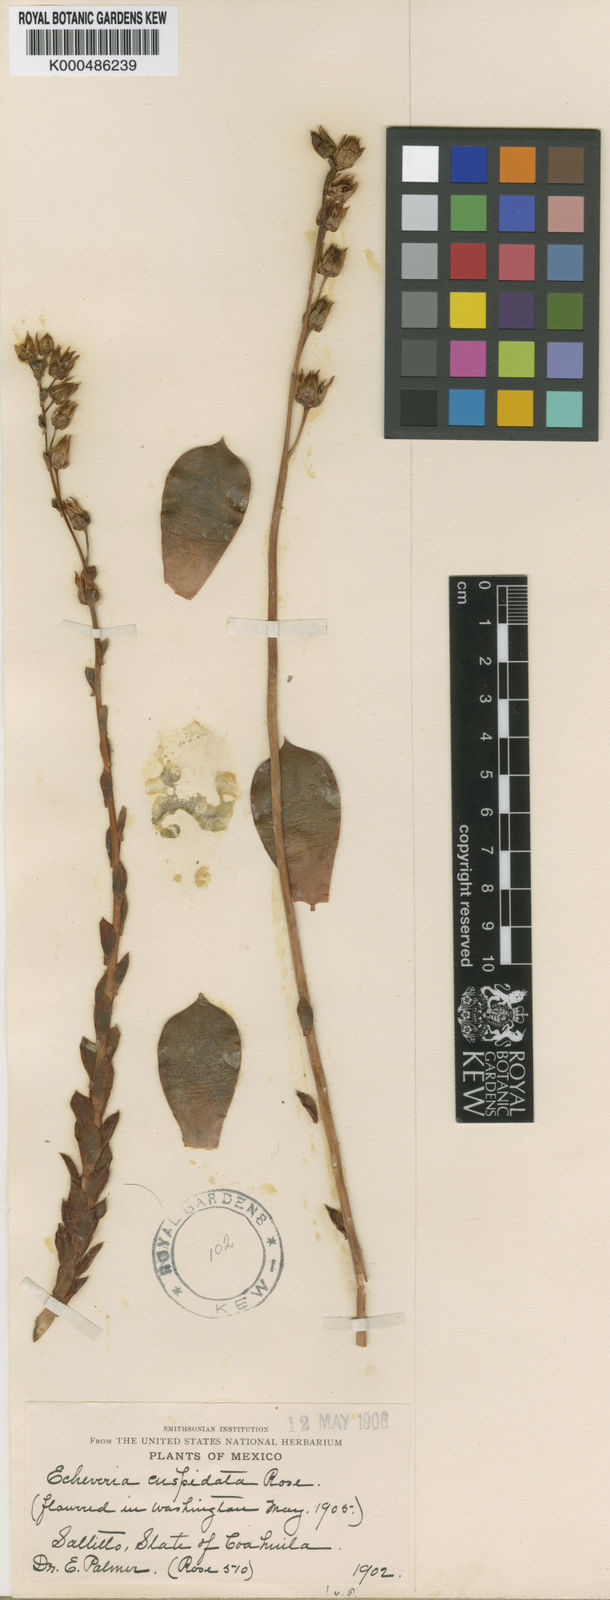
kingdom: Plantae
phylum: Tracheophyta
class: Magnoliopsida
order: Saxifragales
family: Crassulaceae
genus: Echeveria
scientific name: Echeveria cuspidata
